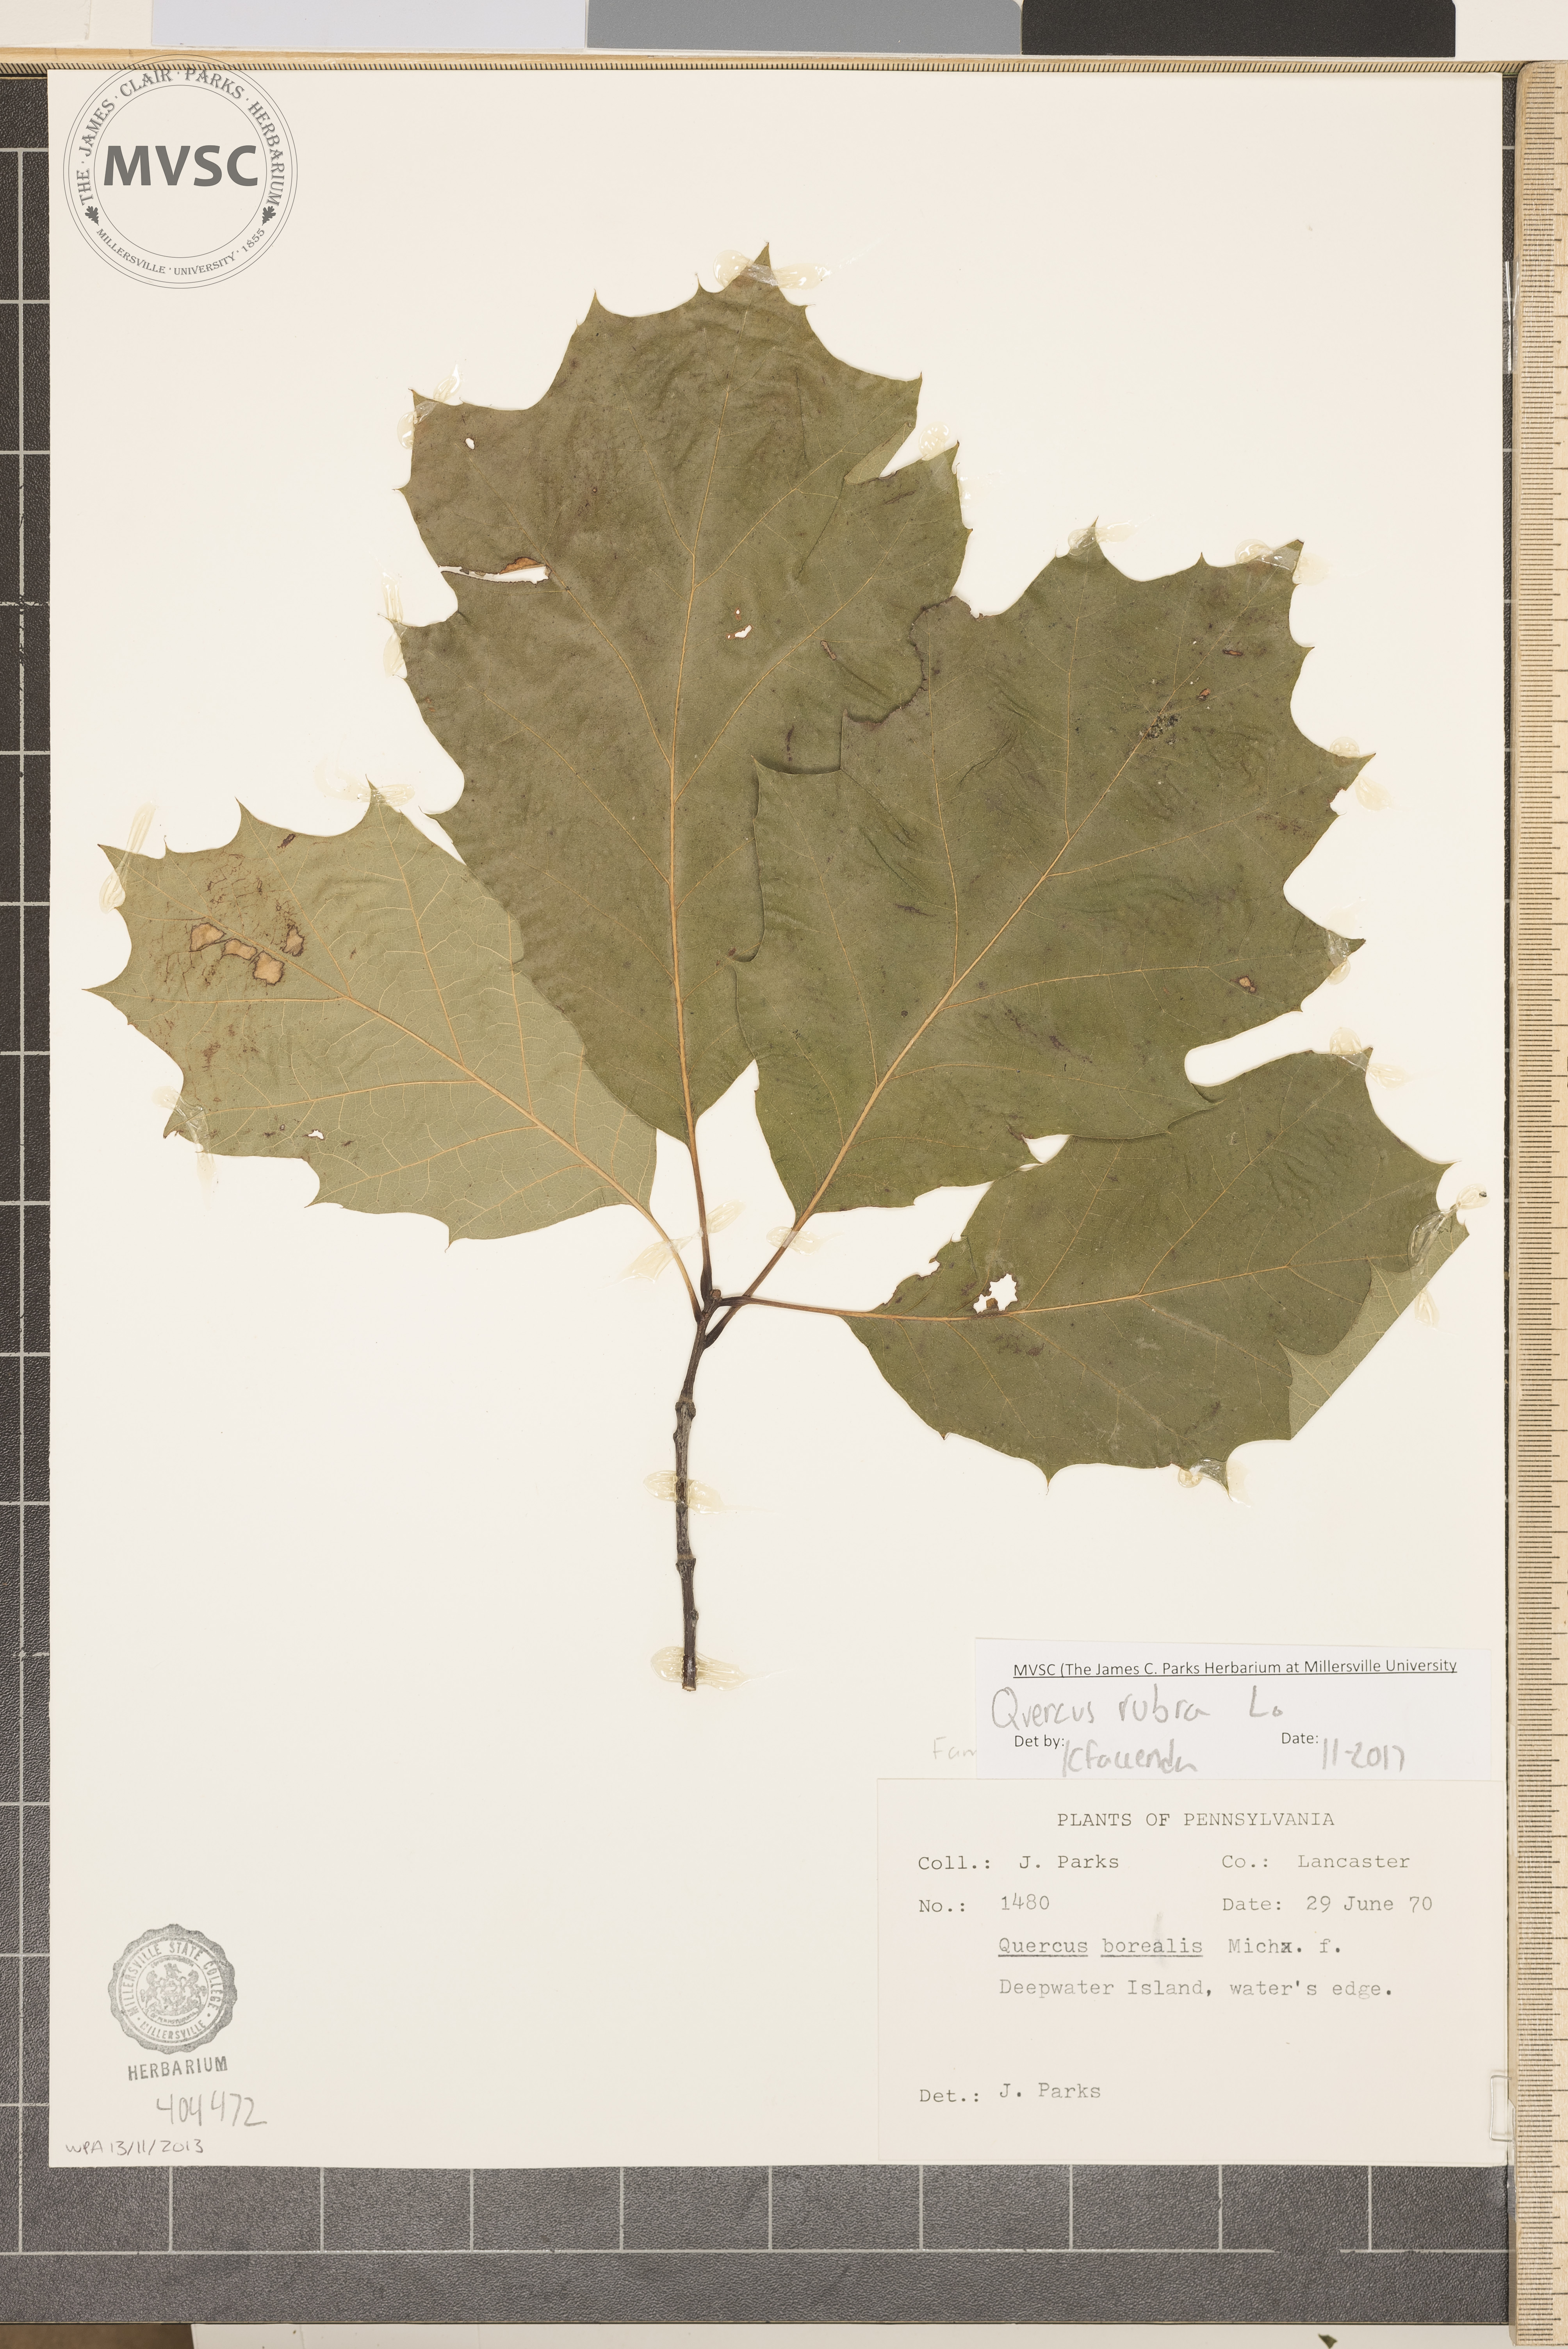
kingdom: Plantae
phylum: Tracheophyta
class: Magnoliopsida
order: Fagales
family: Fagaceae
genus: Quercus
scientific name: Quercus rubra
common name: Red oak
